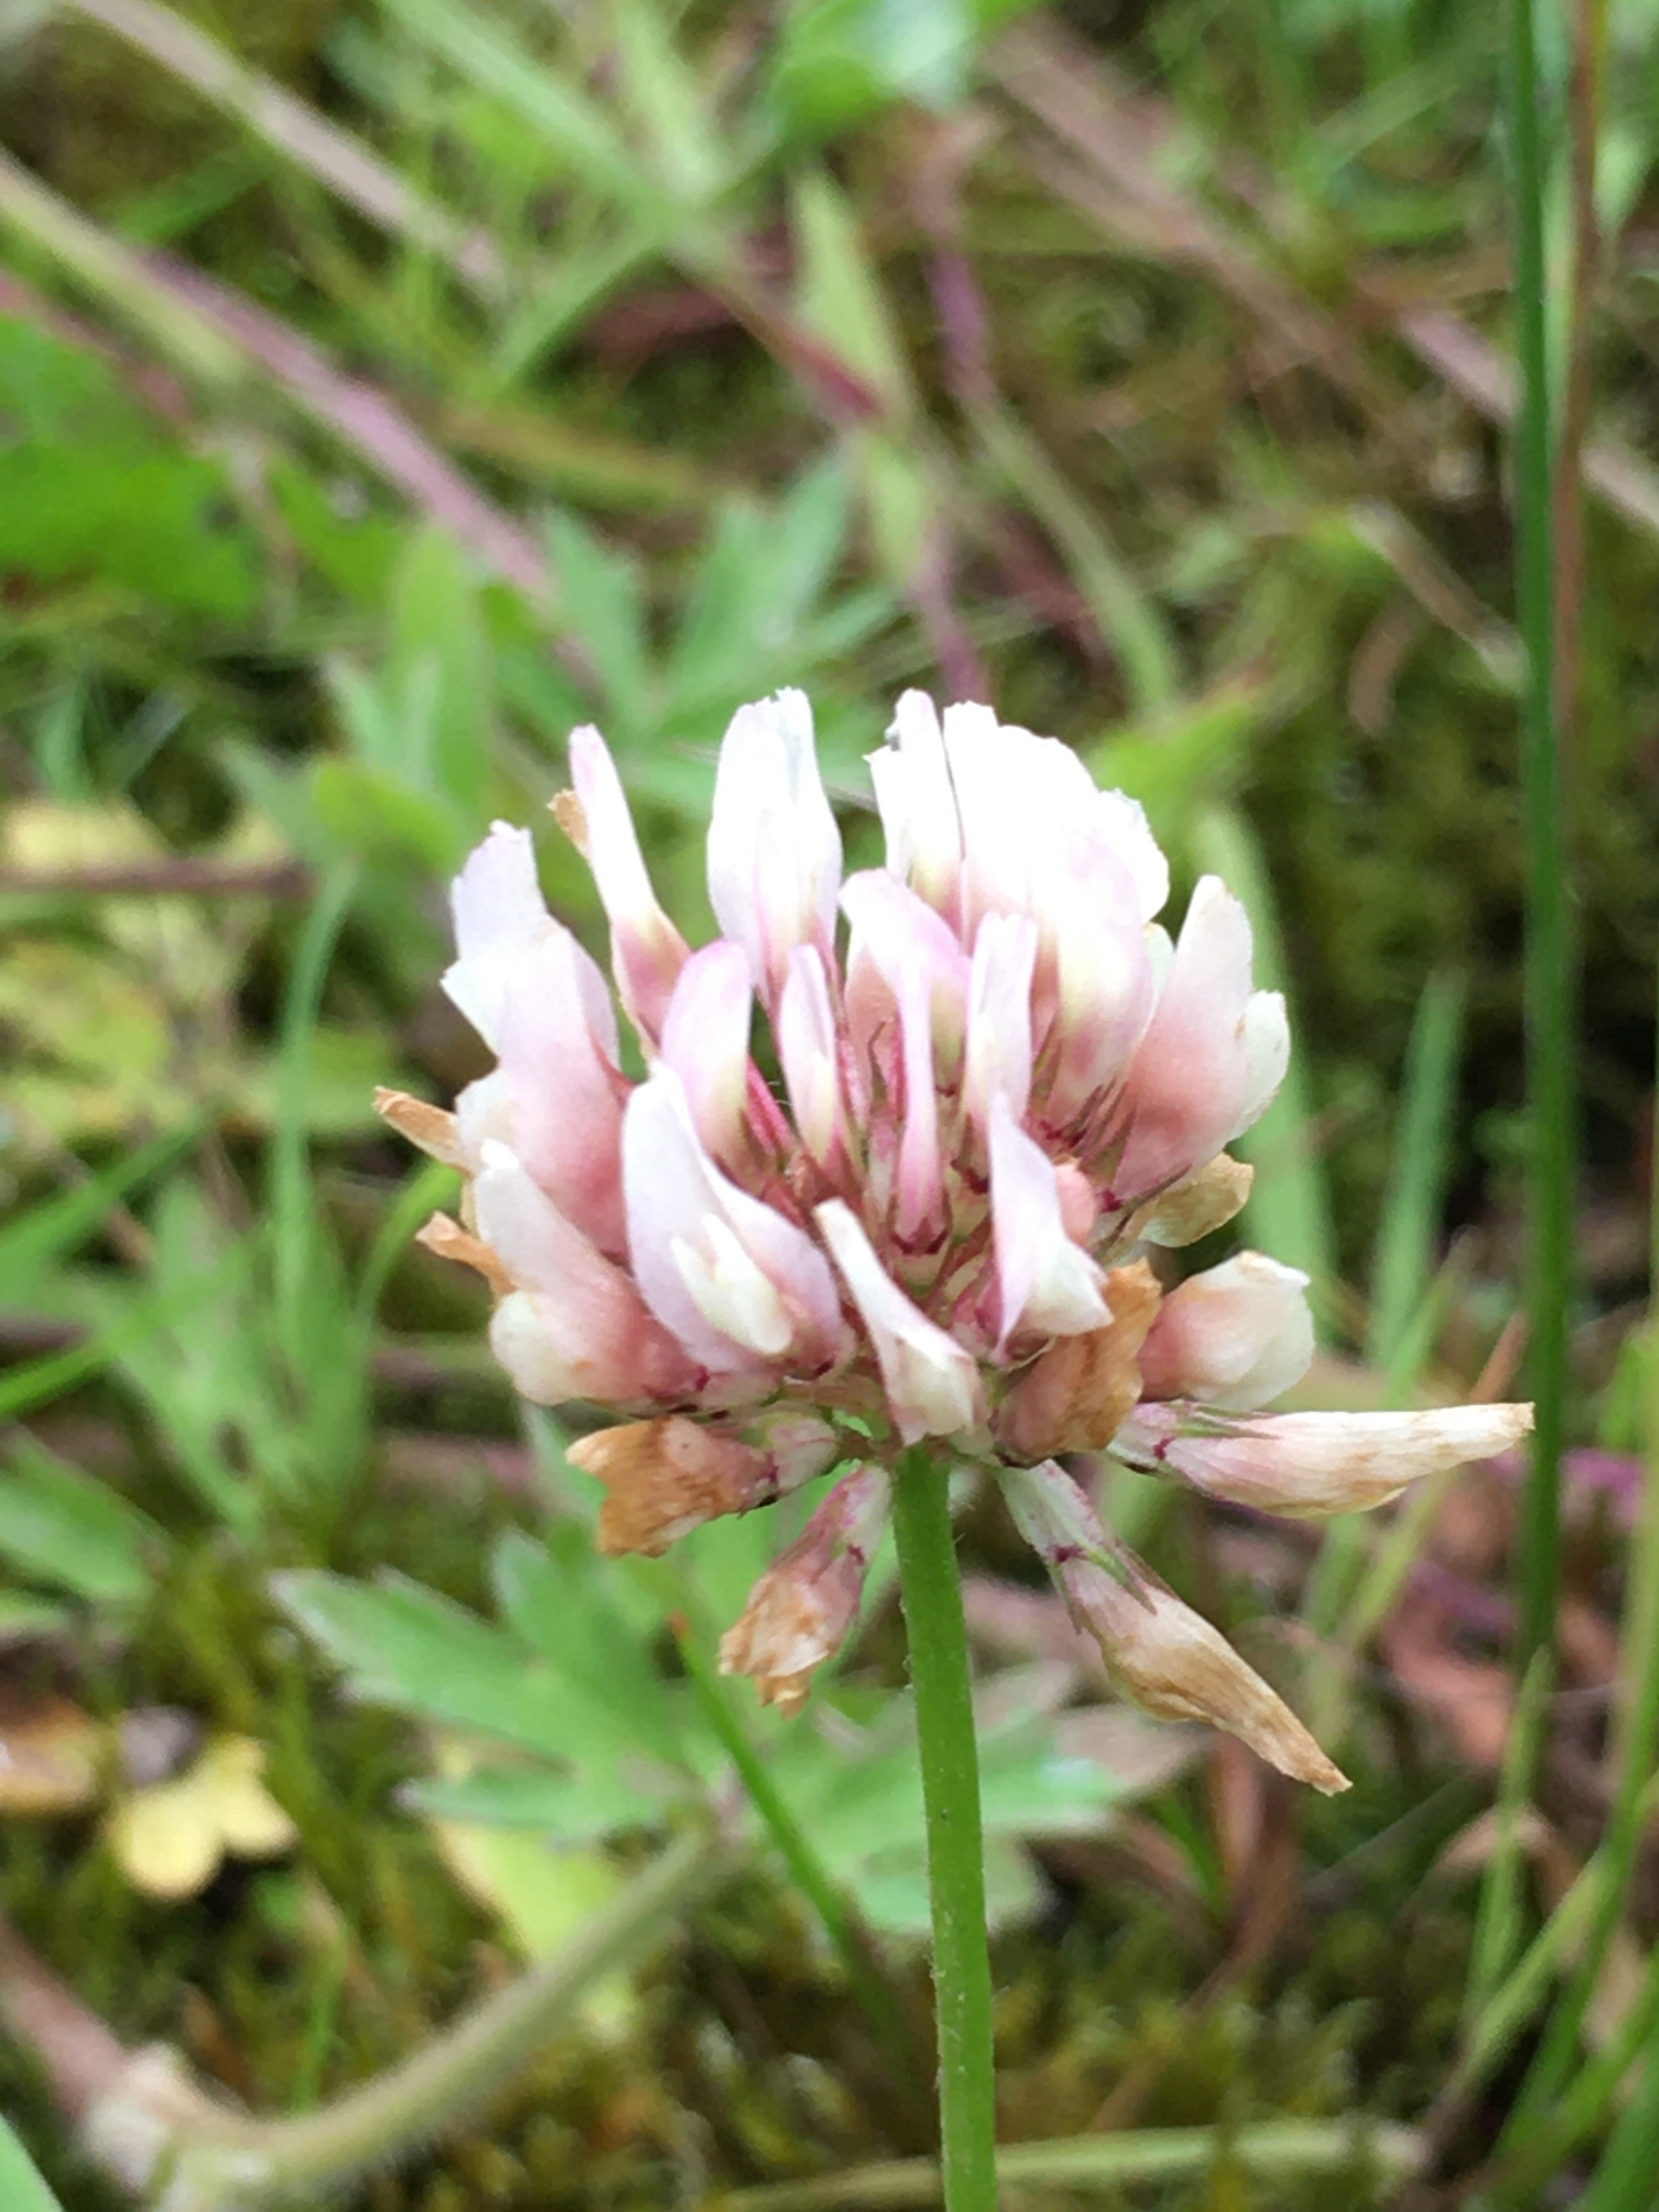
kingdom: Plantae
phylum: Tracheophyta
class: Magnoliopsida
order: Fabales
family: Fabaceae
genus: Trifolium
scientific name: Trifolium repens
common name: Hvid-kløver
